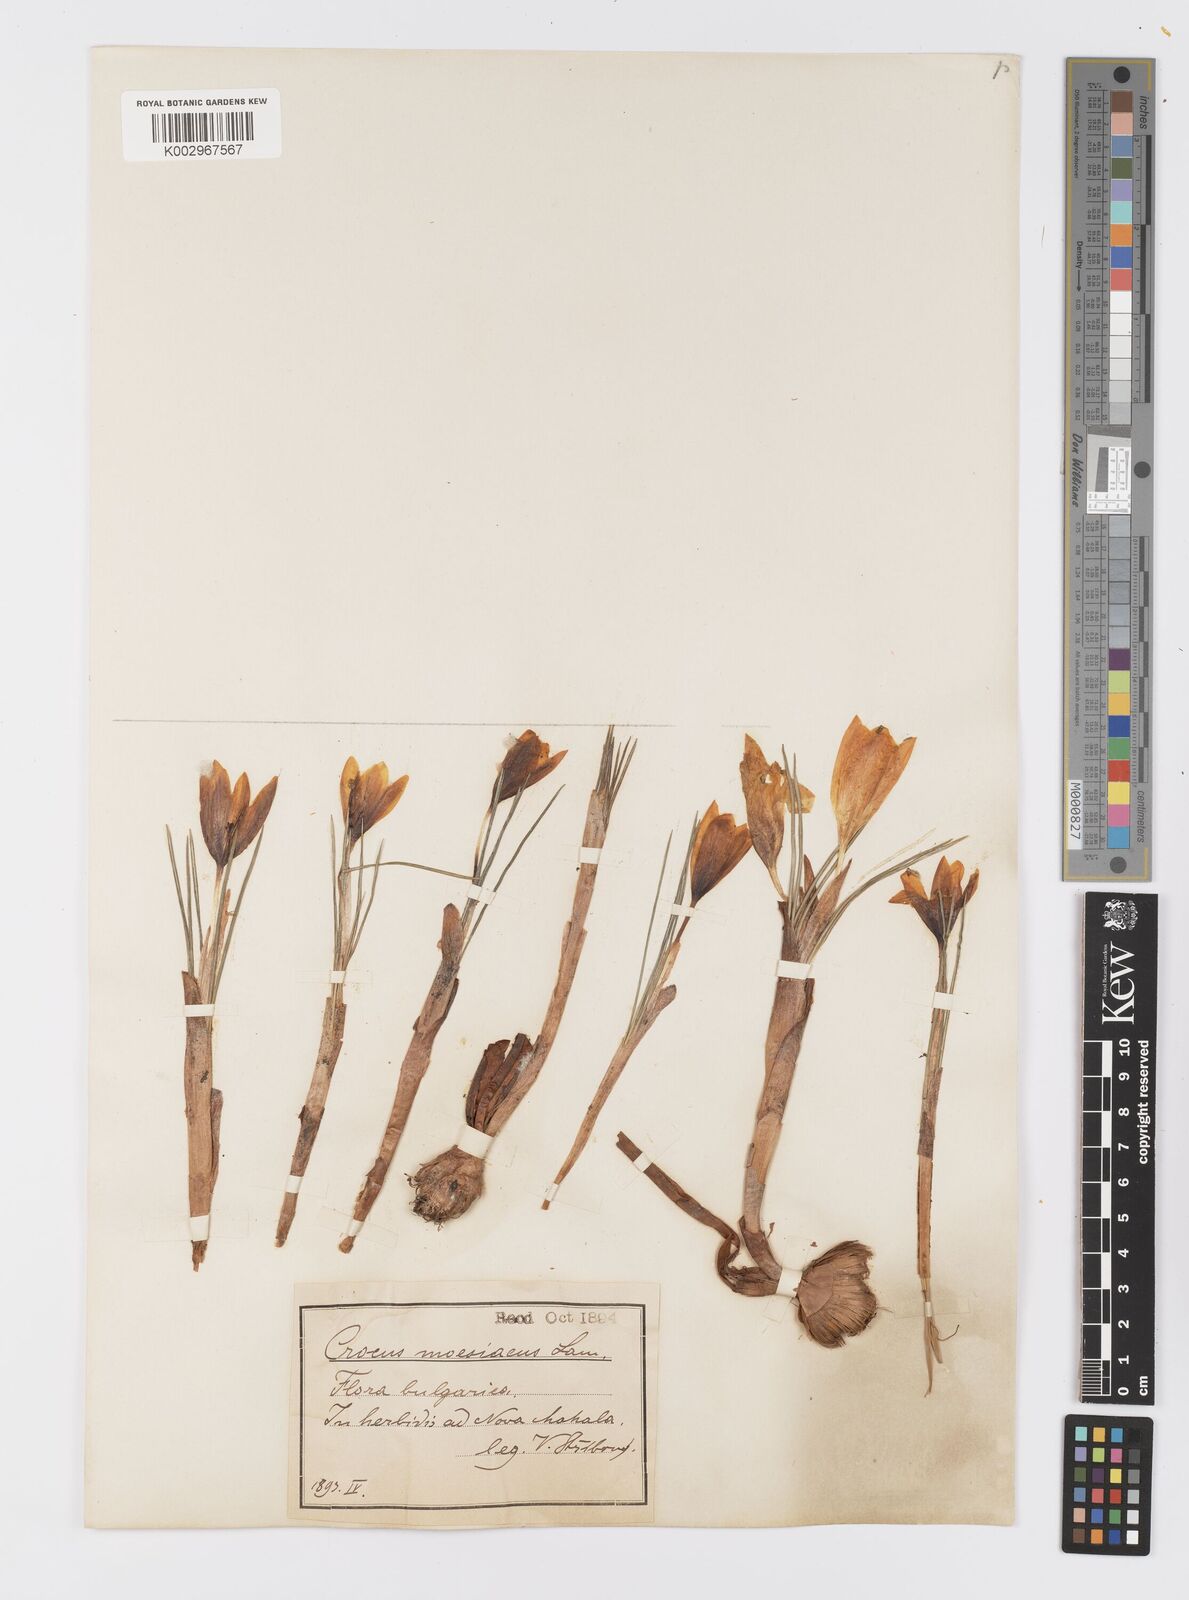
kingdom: Plantae
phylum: Tracheophyta
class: Liliopsida
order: Asparagales
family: Iridaceae
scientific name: Iridaceae
